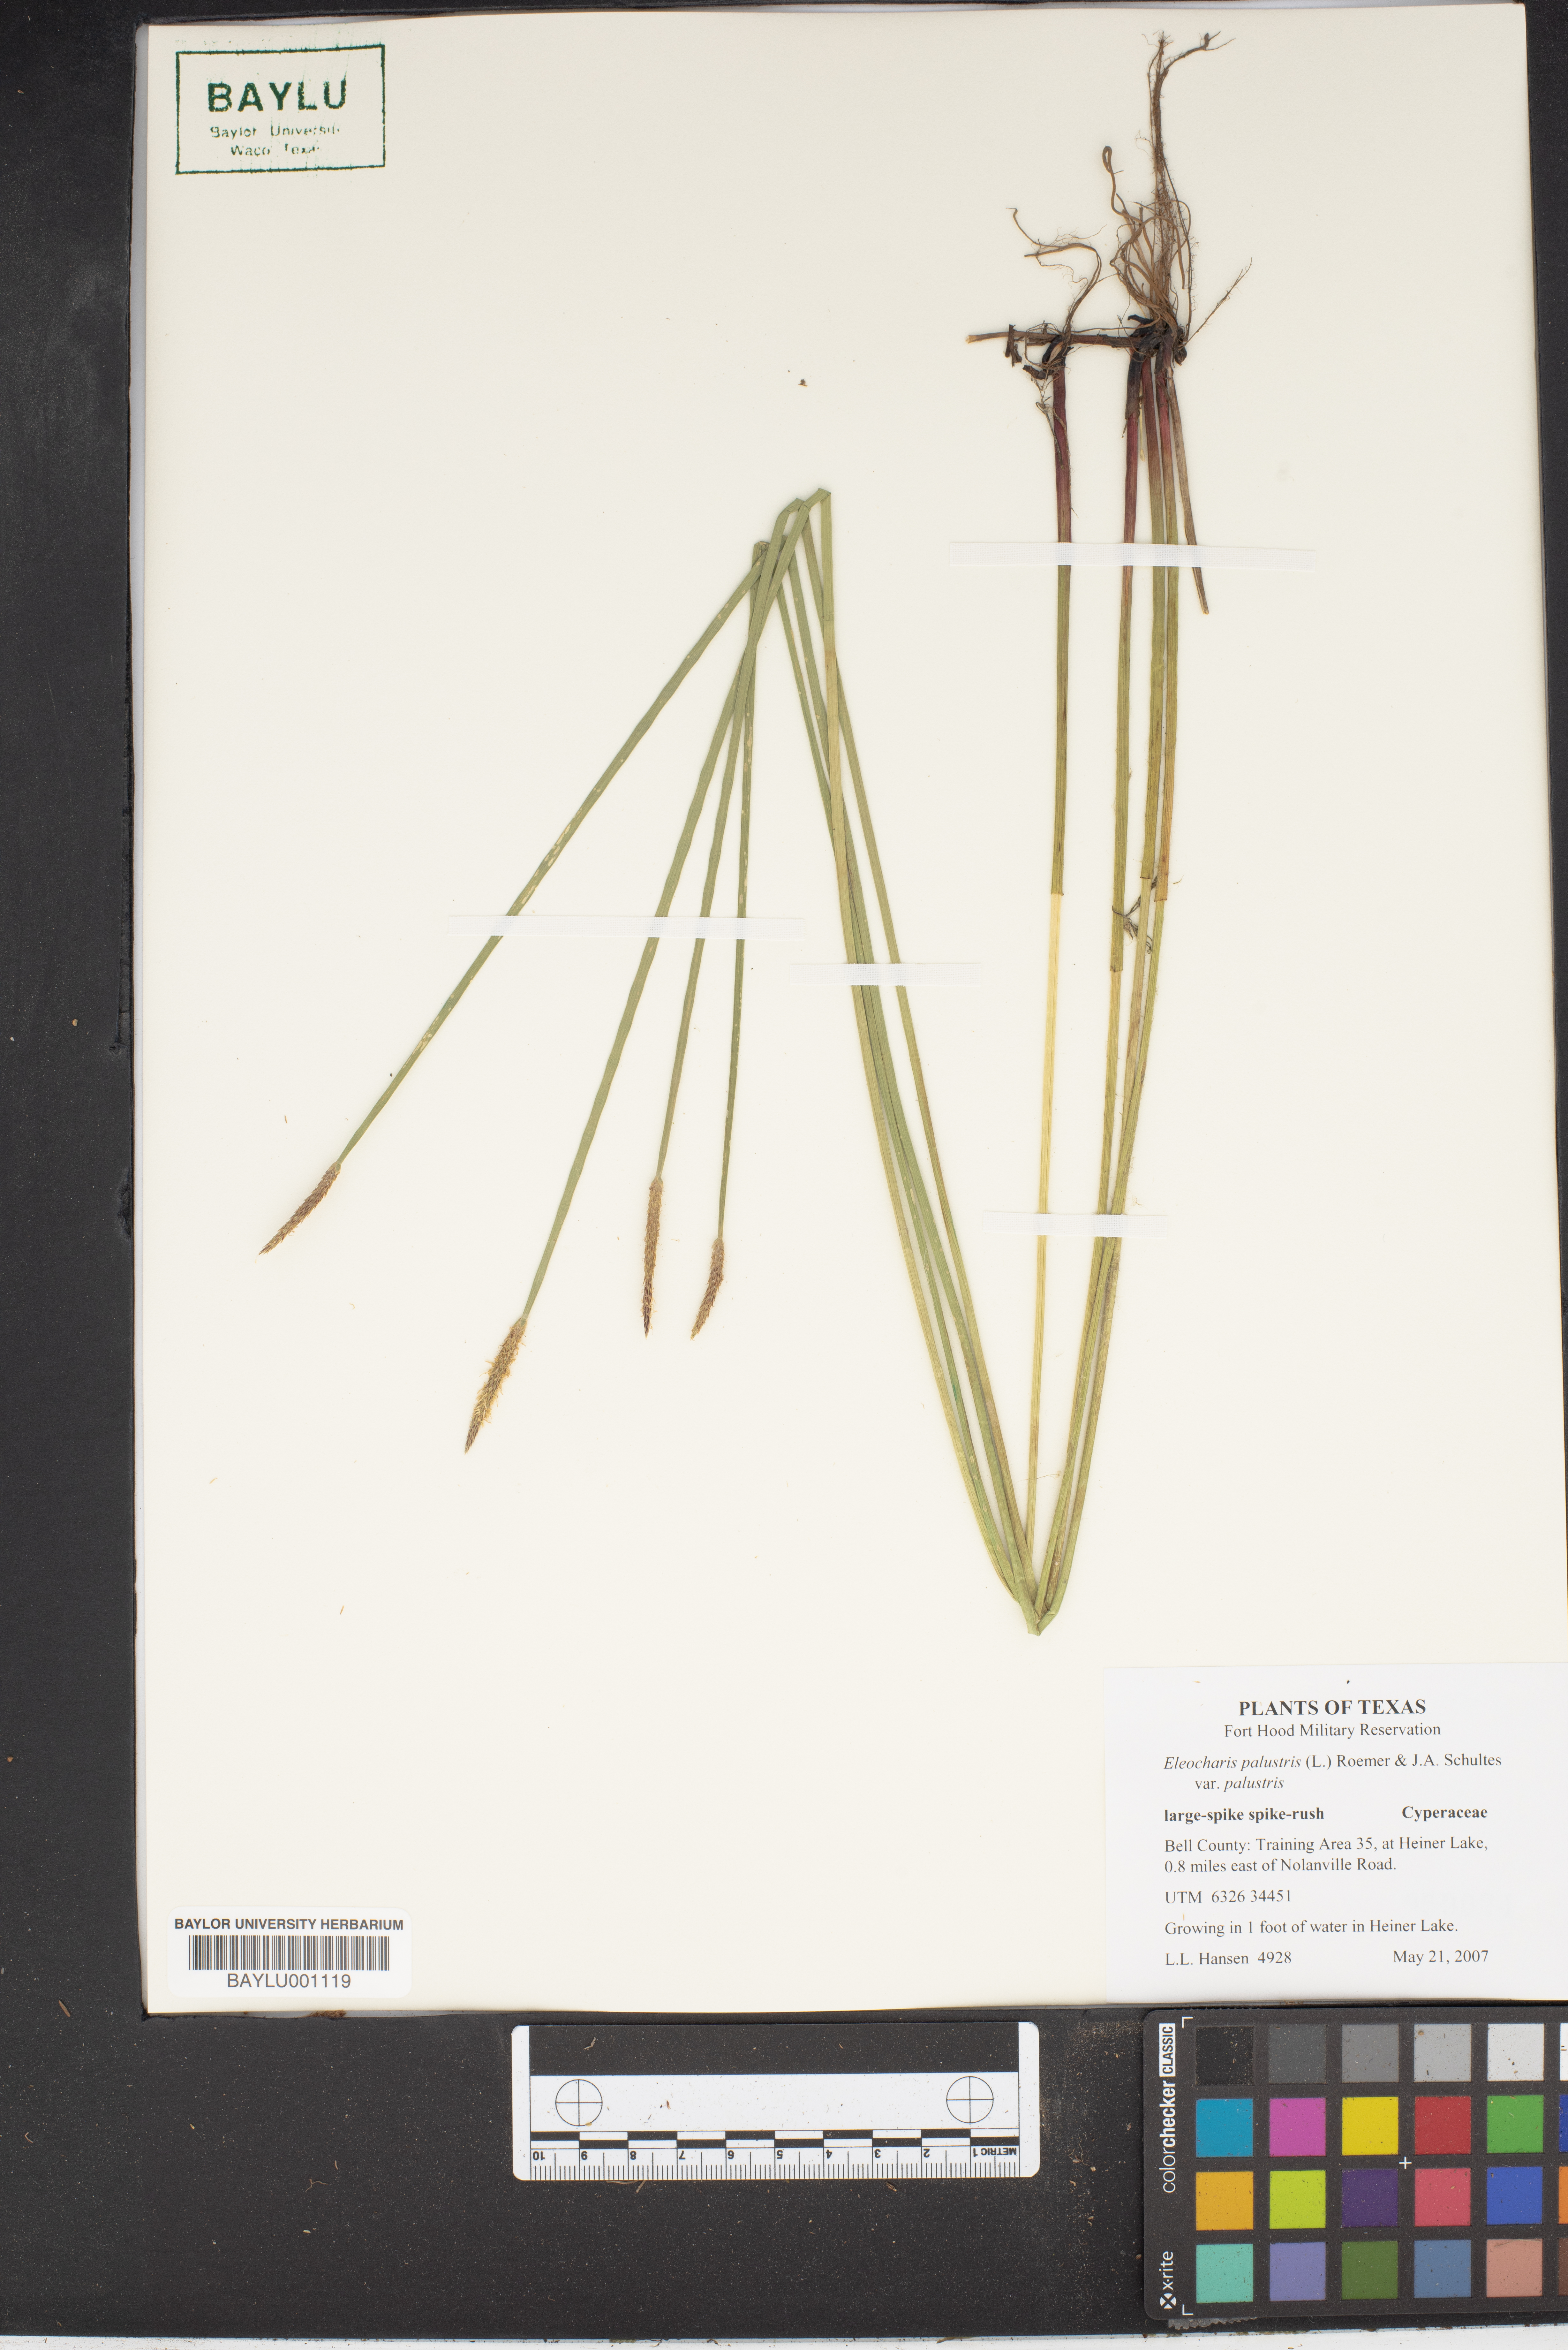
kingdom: Plantae
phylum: Tracheophyta
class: Liliopsida
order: Poales
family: Cyperaceae
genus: Eleocharis
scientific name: Eleocharis palustris
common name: Common spike-rush
